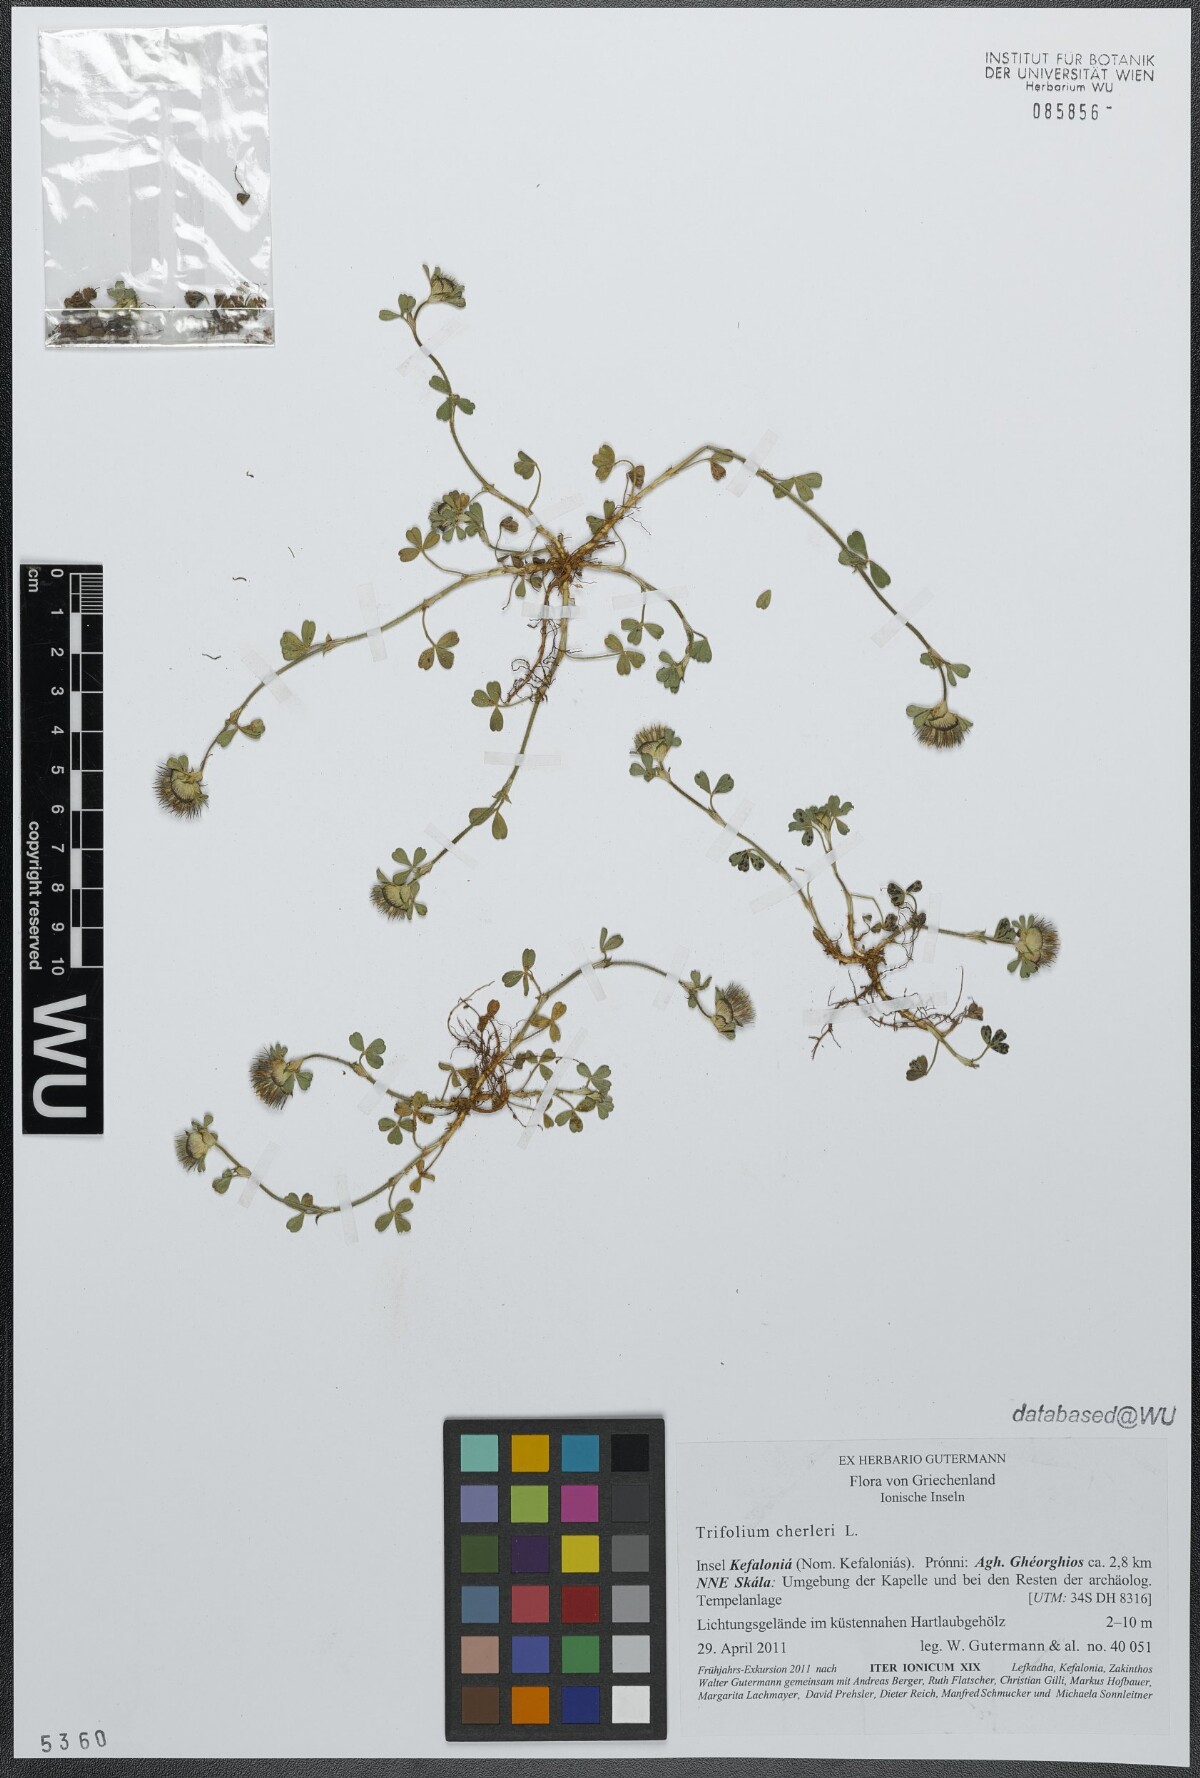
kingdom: Plantae
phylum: Tracheophyta
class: Magnoliopsida
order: Fabales
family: Fabaceae
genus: Trifolium
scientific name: Trifolium cherleri
